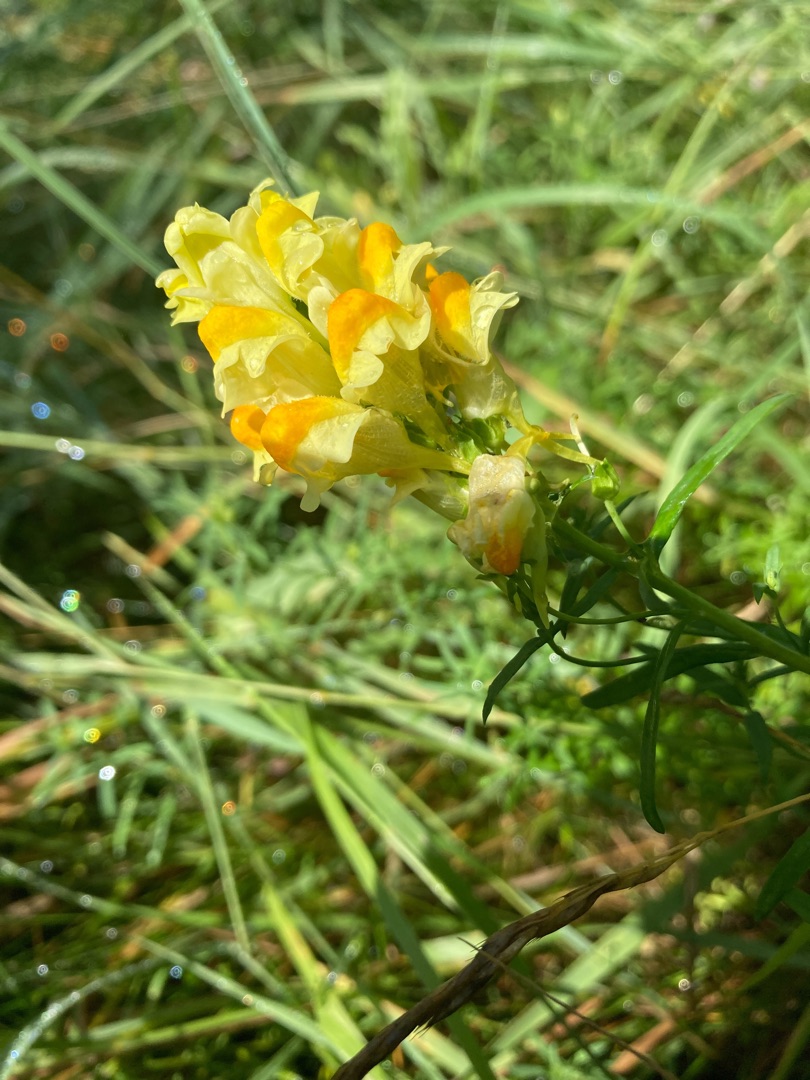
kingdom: Plantae
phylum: Tracheophyta
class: Magnoliopsida
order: Lamiales
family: Plantaginaceae
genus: Linaria
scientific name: Linaria vulgaris
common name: Almindelig torskemund
